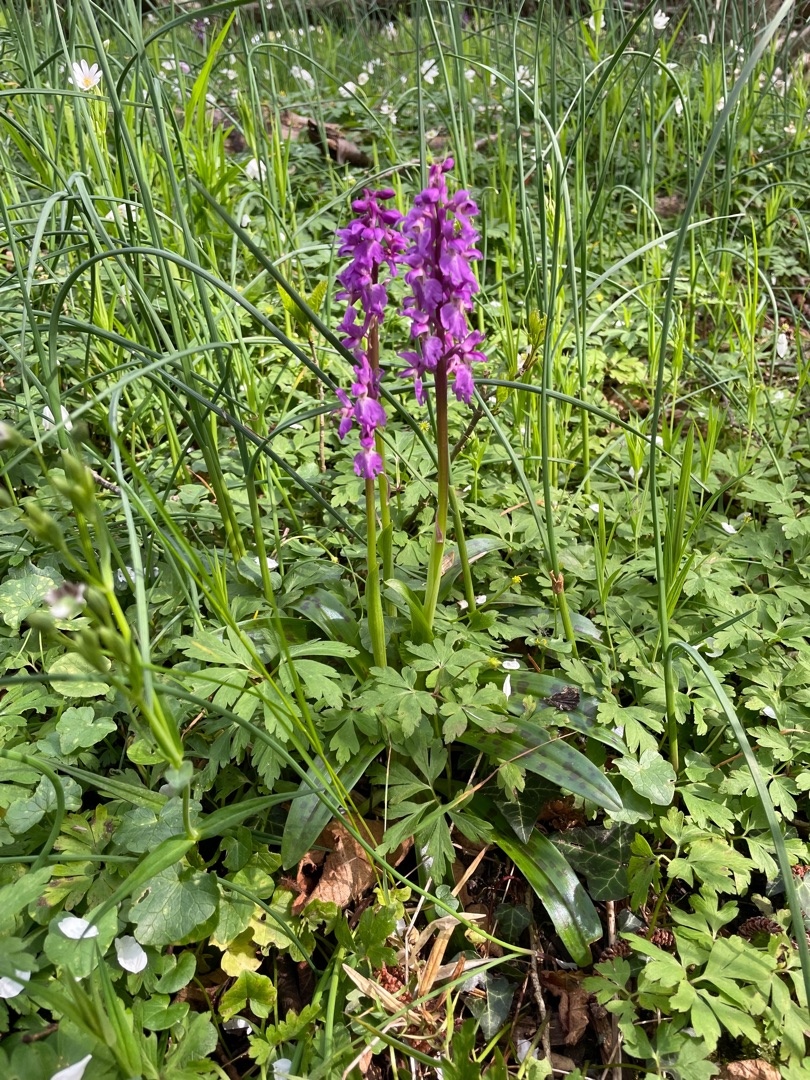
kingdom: Plantae
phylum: Tracheophyta
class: Liliopsida
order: Asparagales
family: Orchidaceae
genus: Orchis
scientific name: Orchis mascula
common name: Tyndakset gøgeurt
